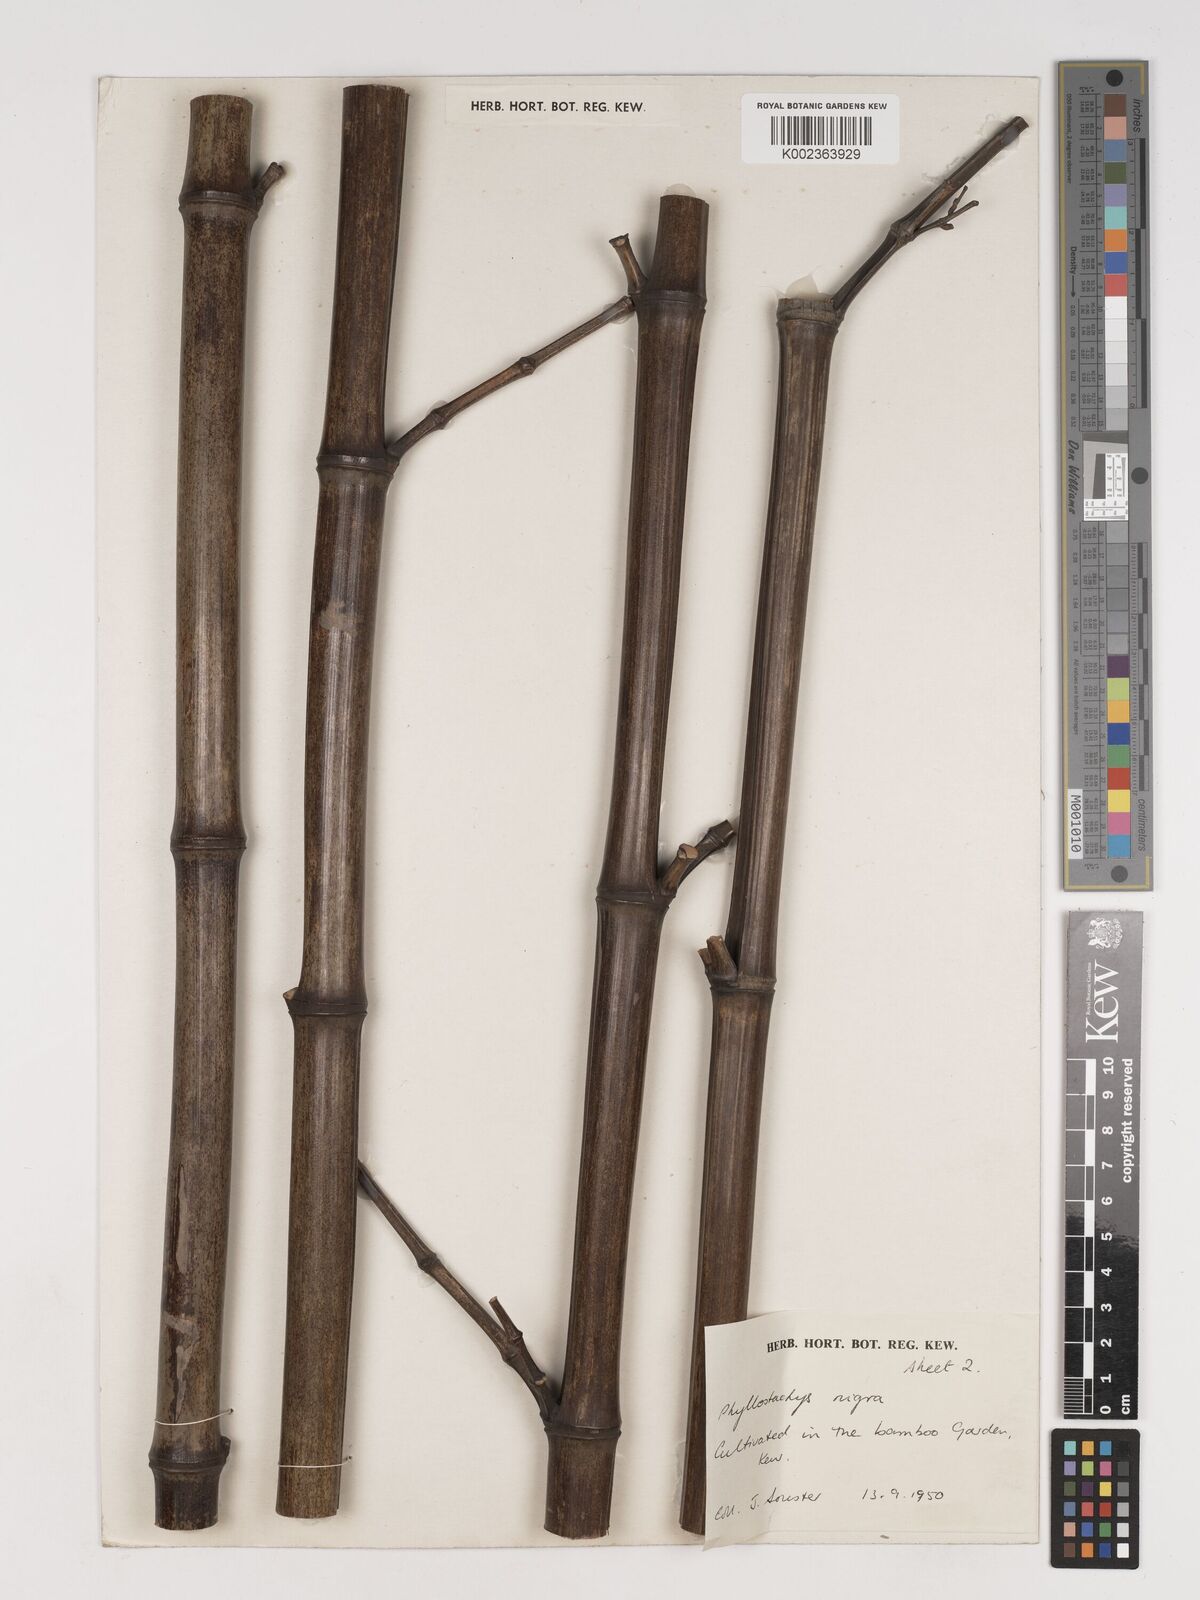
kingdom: Plantae
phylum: Tracheophyta
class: Liliopsida
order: Poales
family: Poaceae
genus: Phyllostachys
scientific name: Phyllostachys nigra
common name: Black bamboo
